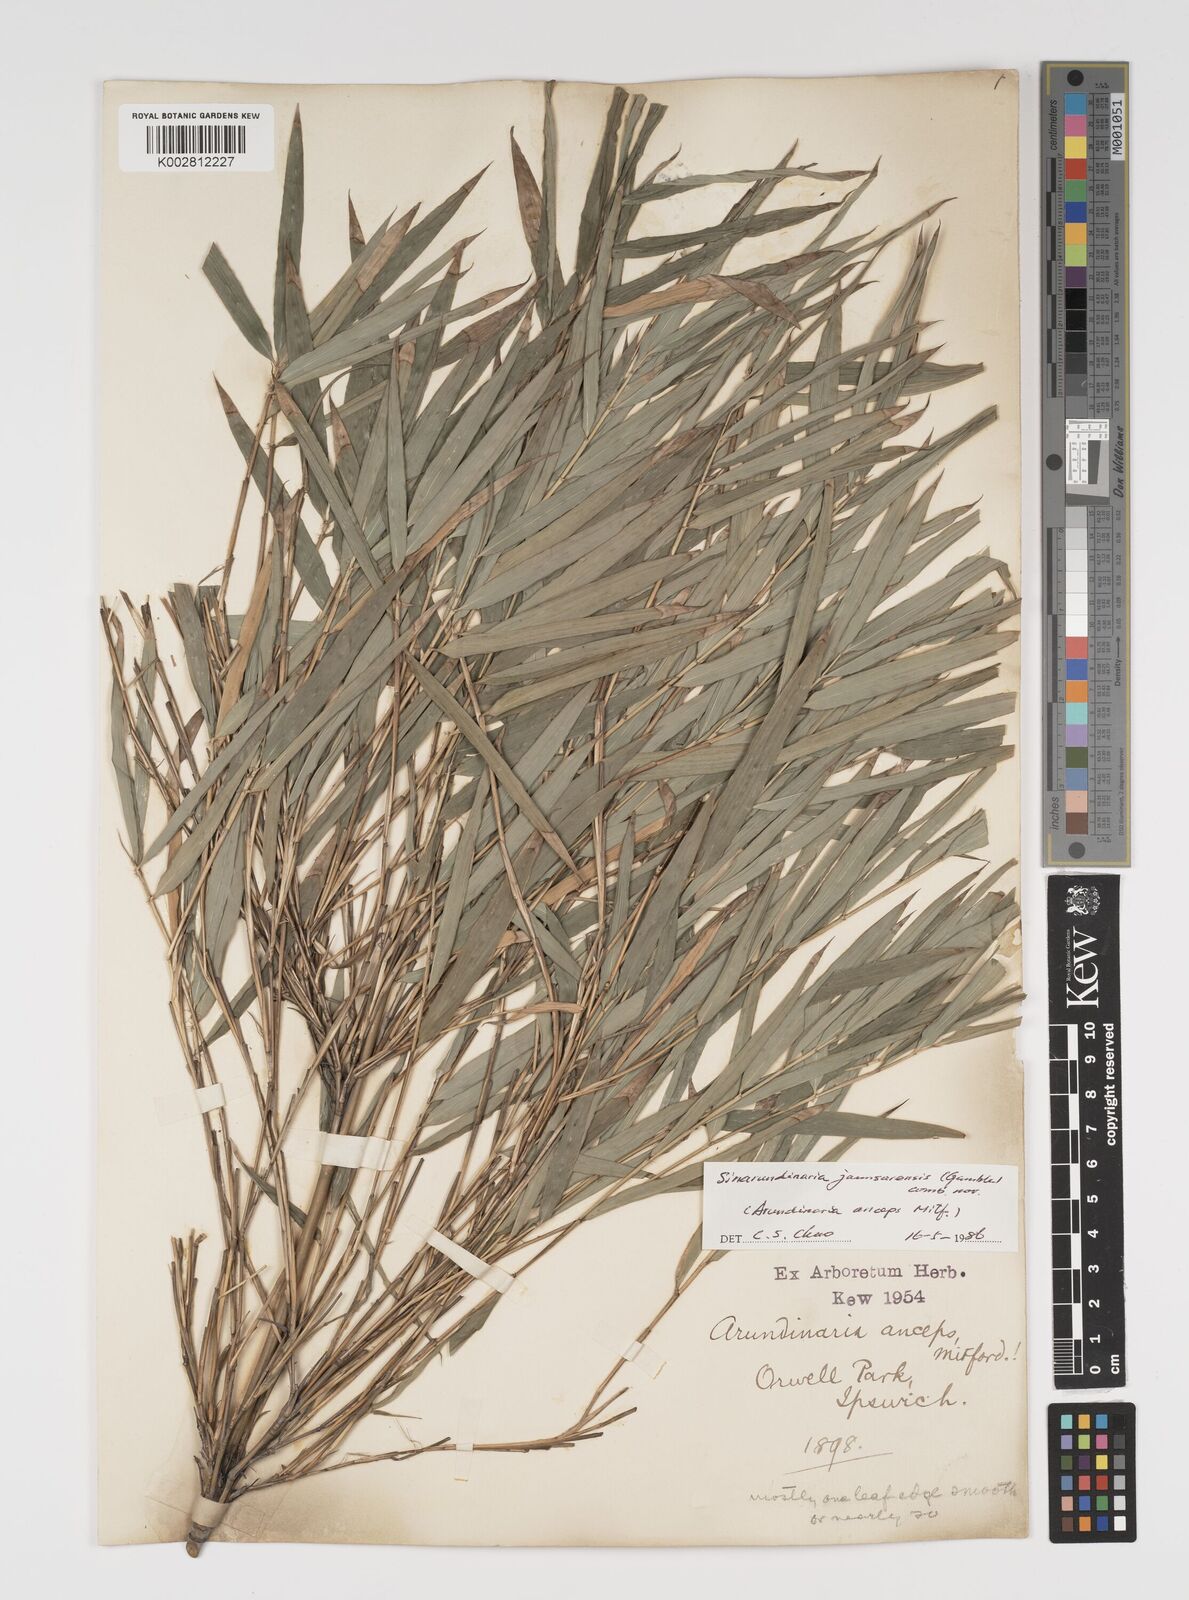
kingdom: Plantae
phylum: Tracheophyta
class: Liliopsida
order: Poales
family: Poaceae
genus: Yushania
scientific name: Yushania anceps
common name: Indian fountain-bamboo
